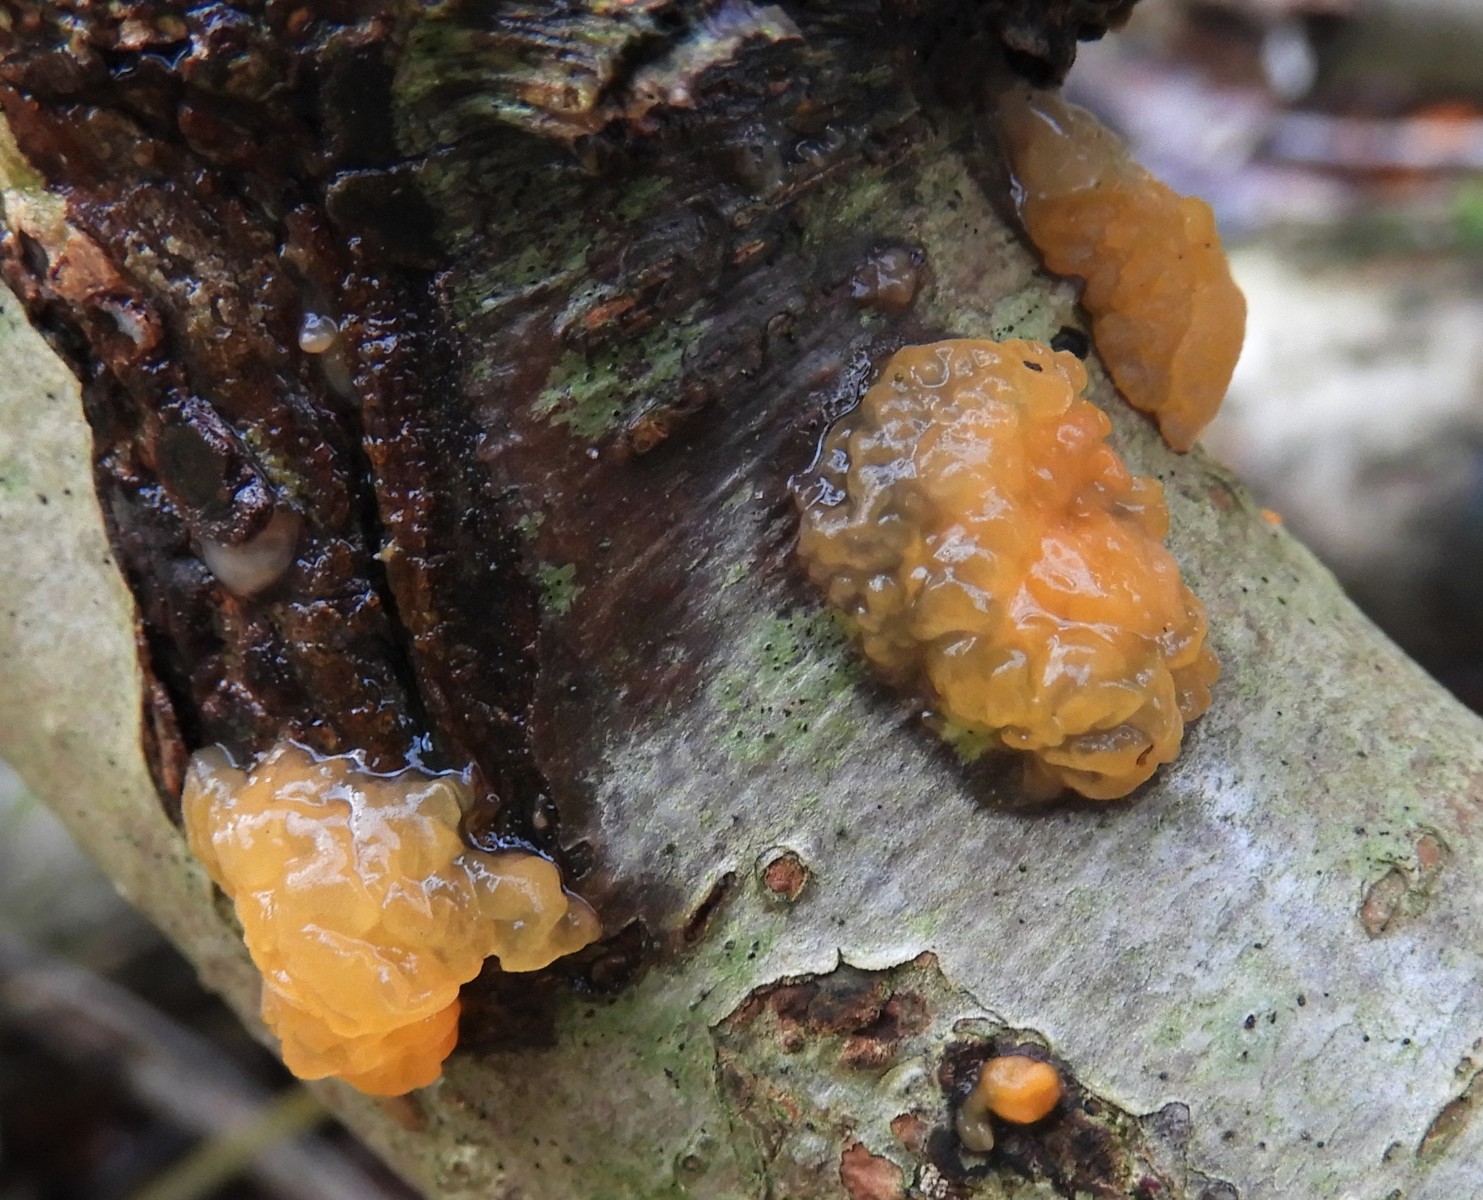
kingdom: Fungi
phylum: Basidiomycota
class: Dacrymycetes
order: Dacrymycetales
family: Dacrymycetaceae
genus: Dacrymyces
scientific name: Dacrymyces lacrymalis
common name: rynket tåresvamp
